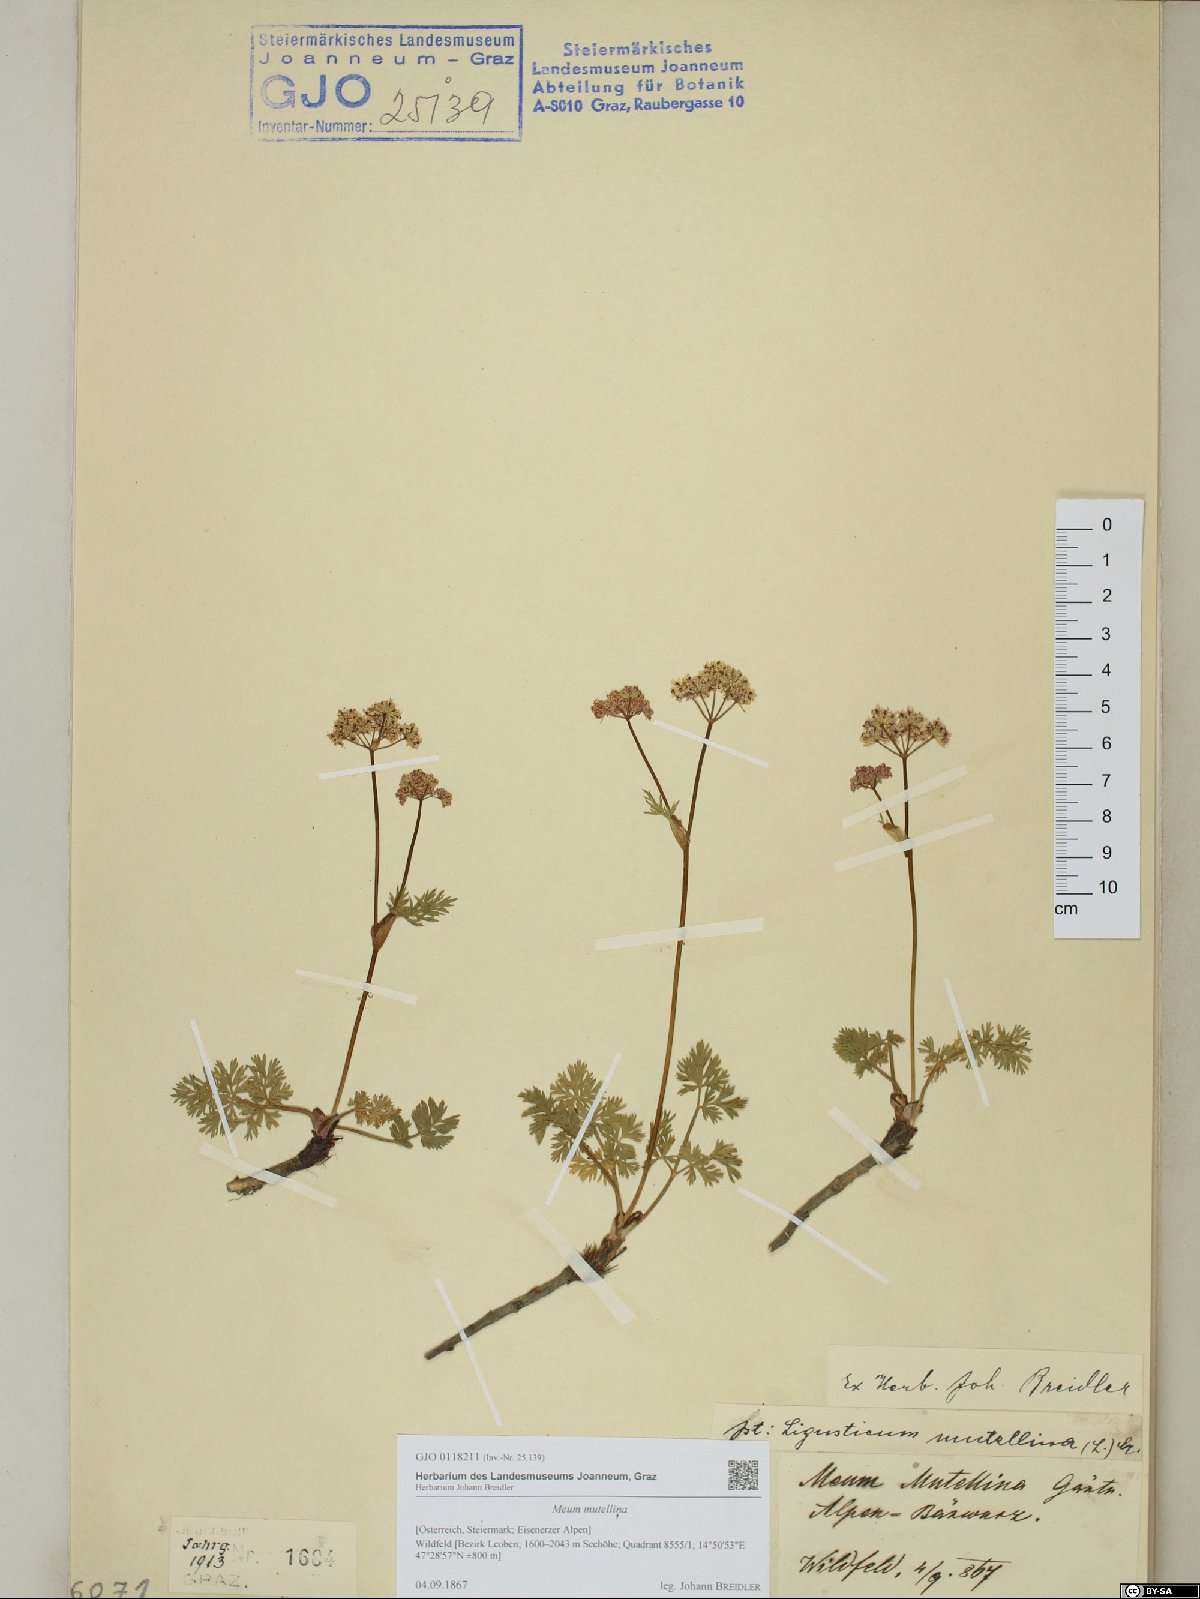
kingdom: Plantae
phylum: Tracheophyta
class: Magnoliopsida
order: Apiales
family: Apiaceae
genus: Mutellina
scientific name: Mutellina adonidifolia
